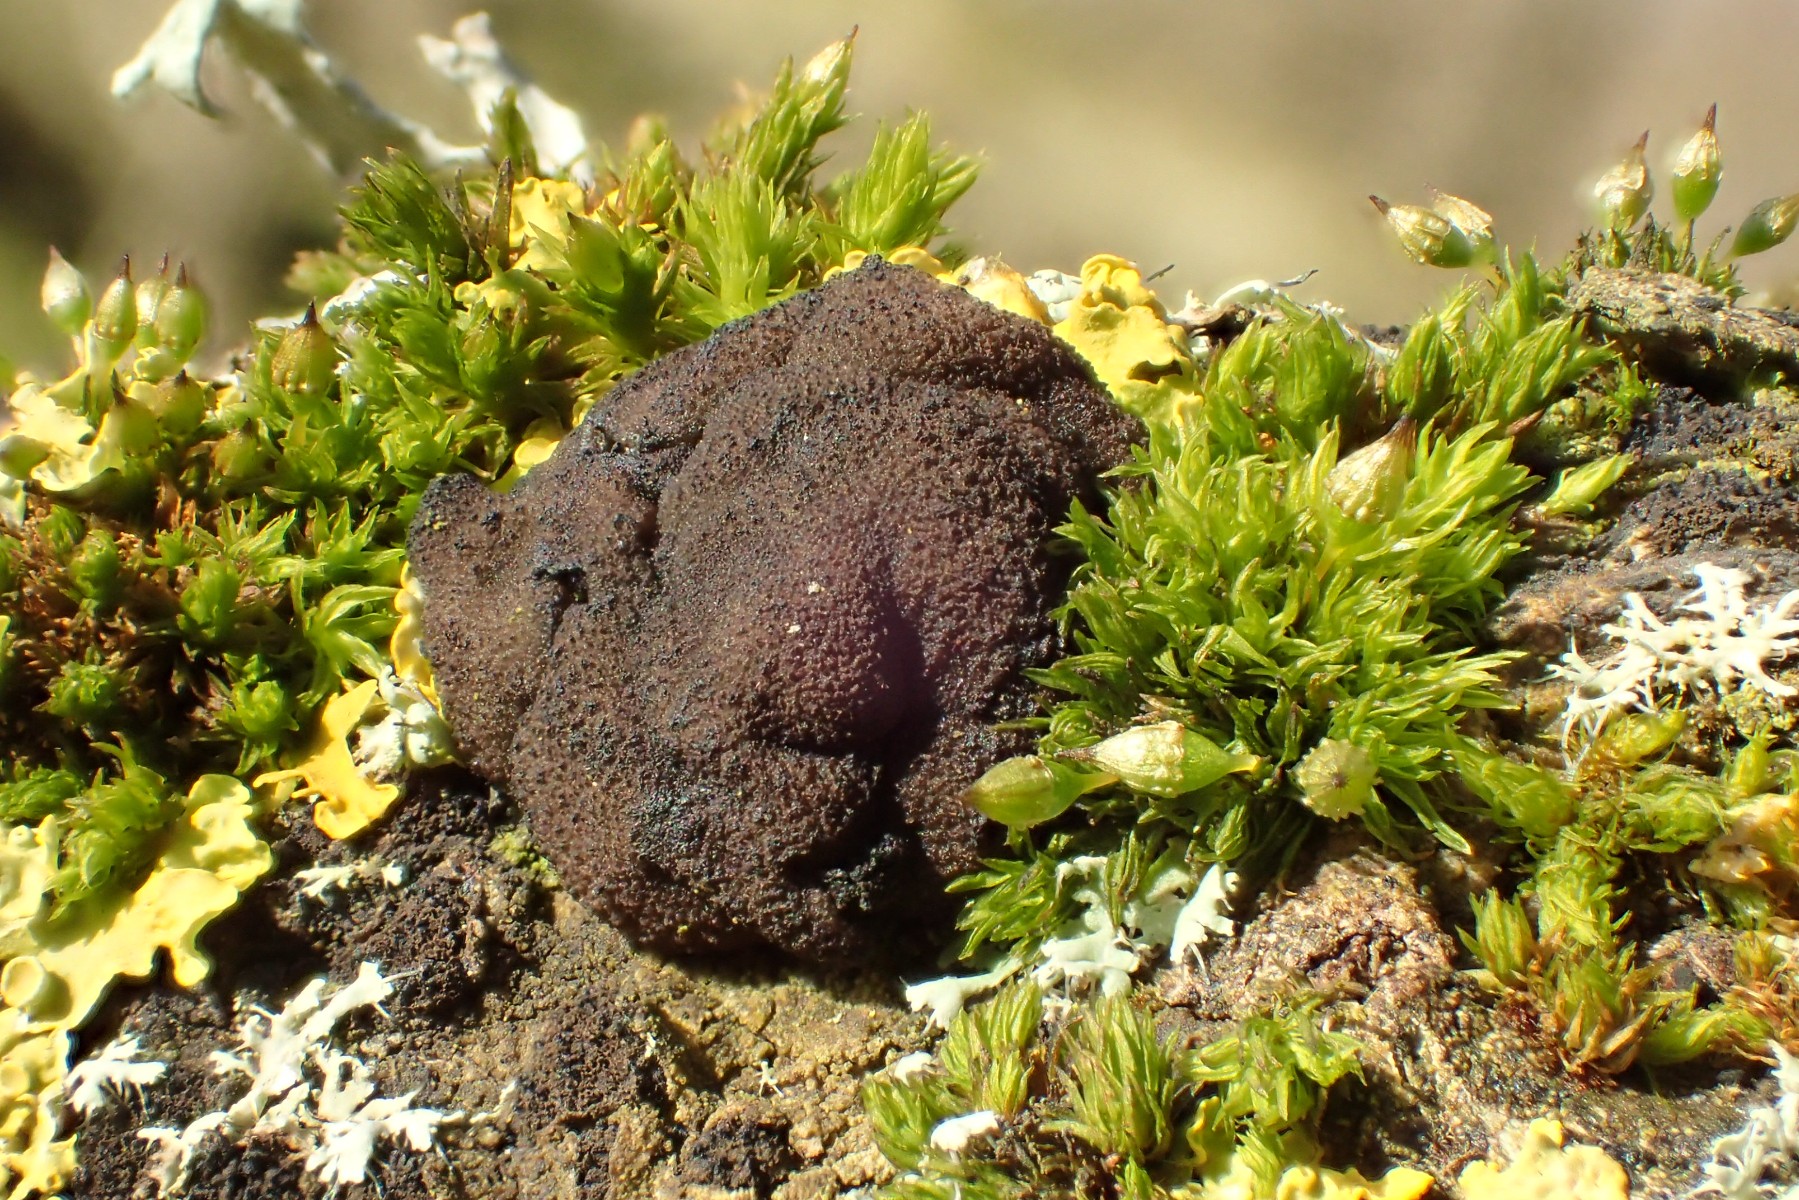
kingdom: Fungi
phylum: Basidiomycota
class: Agaricomycetes
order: Auriculariales
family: Auriculariaceae
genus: Exidia
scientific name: Exidia glandulosa
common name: ege-bævretop
